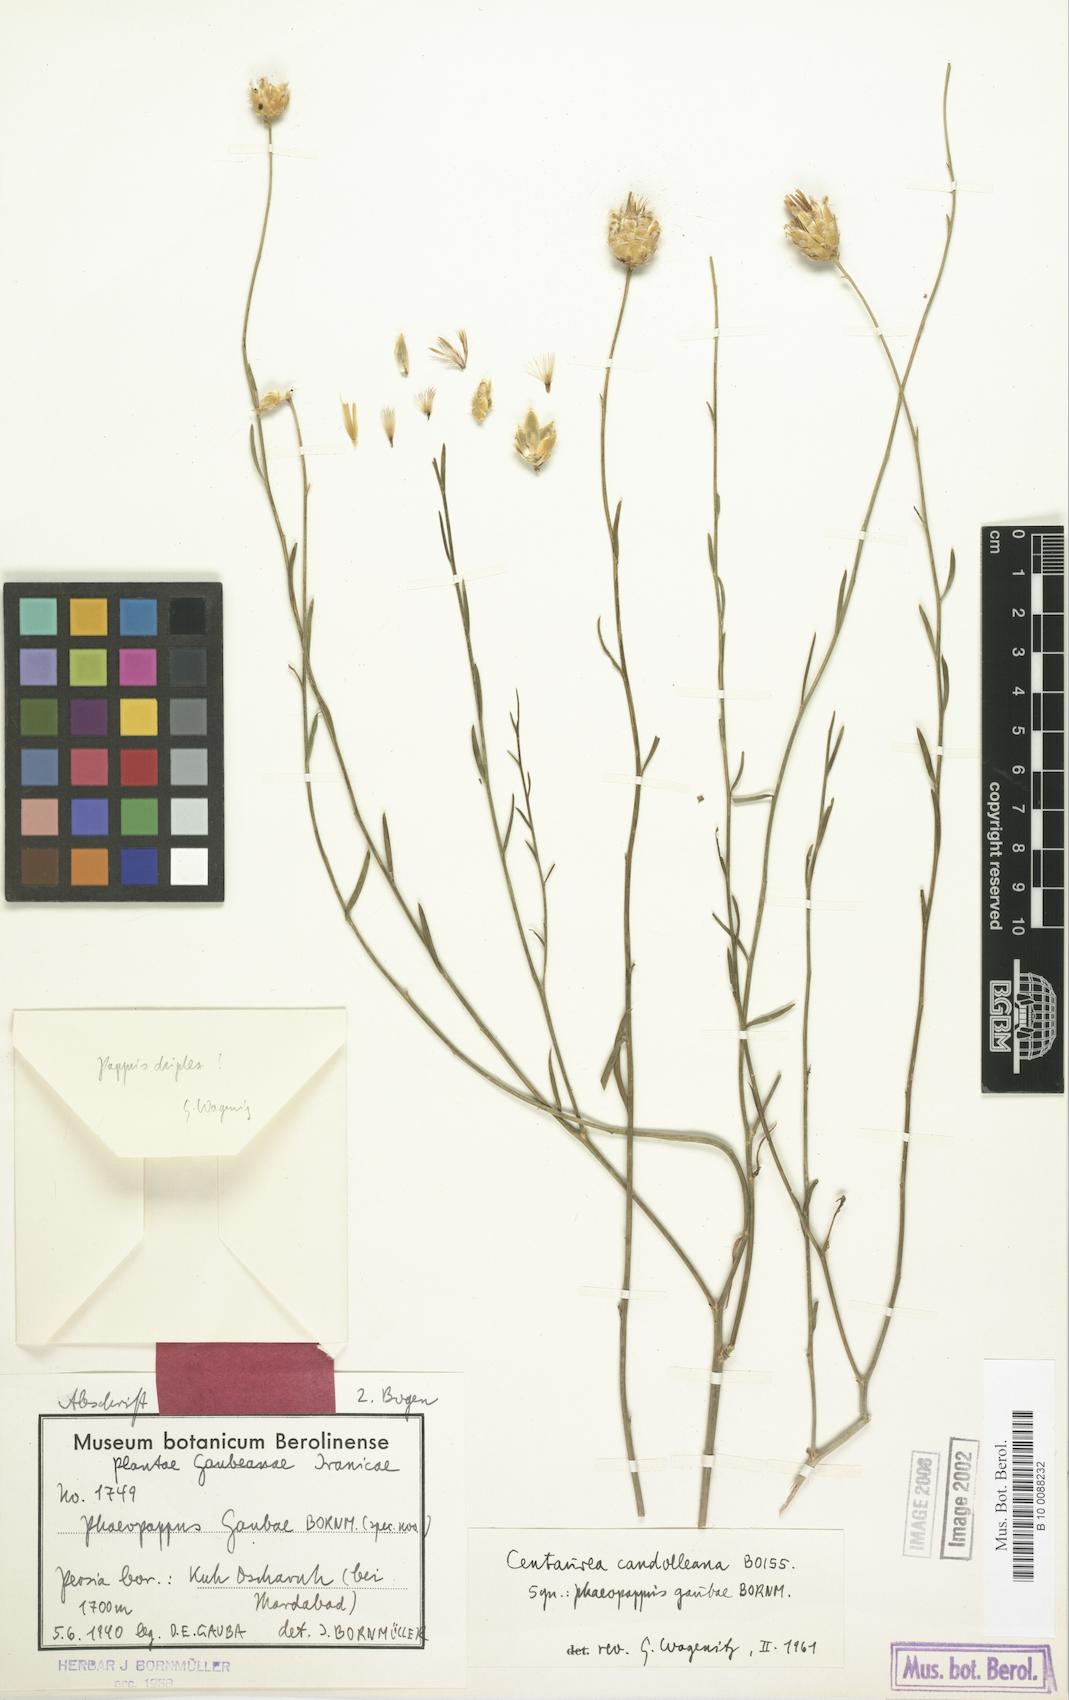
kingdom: Plantae
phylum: Tracheophyta
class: Magnoliopsida
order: Asterales
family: Asteraceae
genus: Centaurea
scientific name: Centaurea kotschyi
